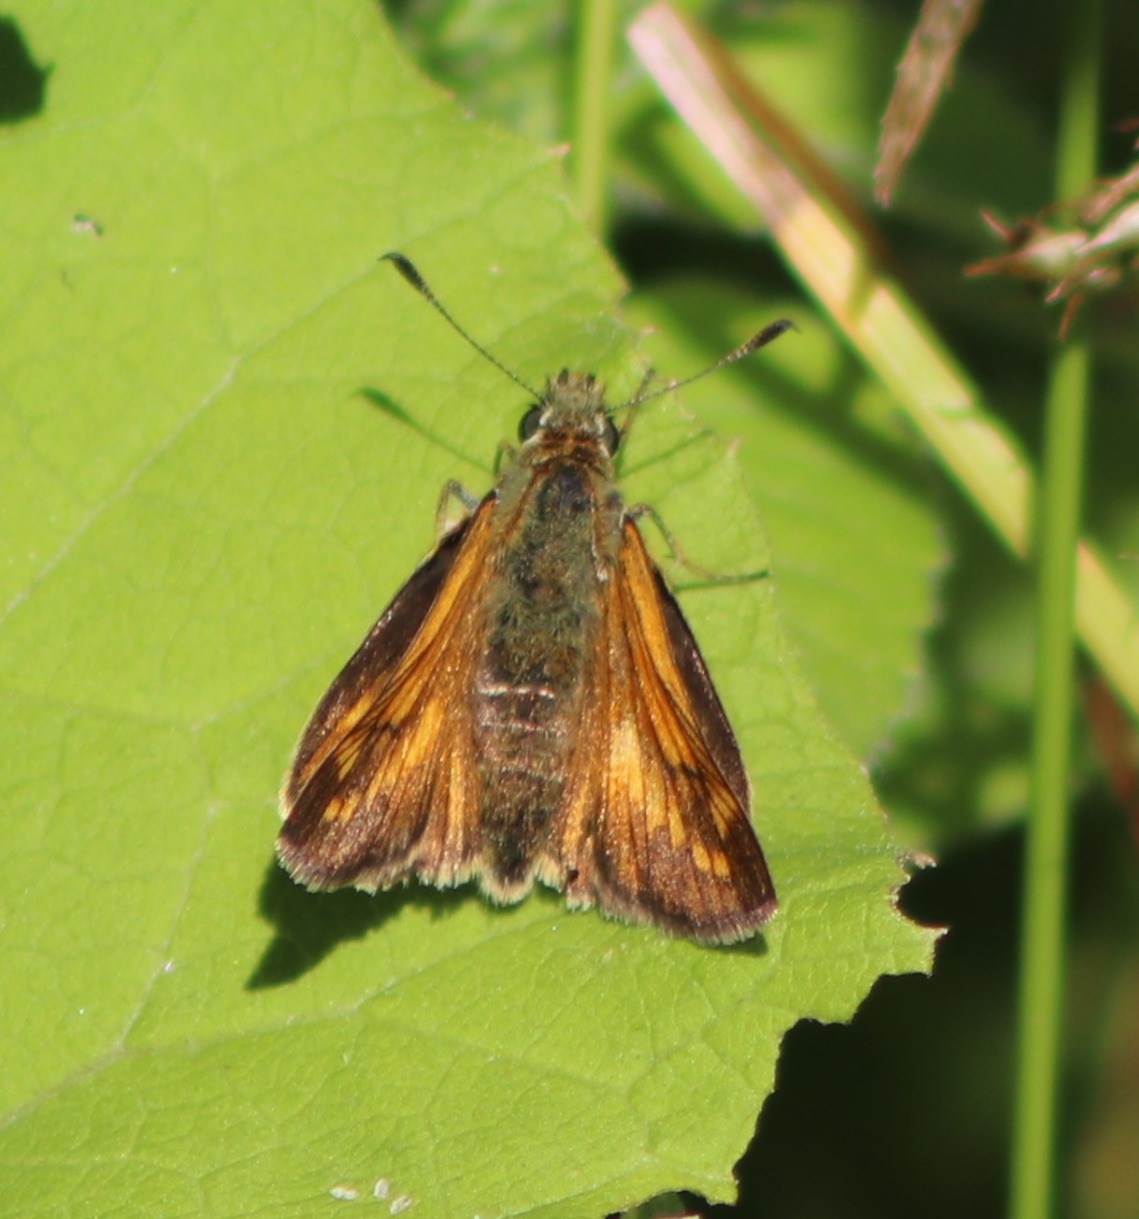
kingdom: Animalia
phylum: Arthropoda
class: Insecta
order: Lepidoptera
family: Hesperiidae
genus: Ochlodes
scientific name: Ochlodes venata
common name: Stor bredpande
